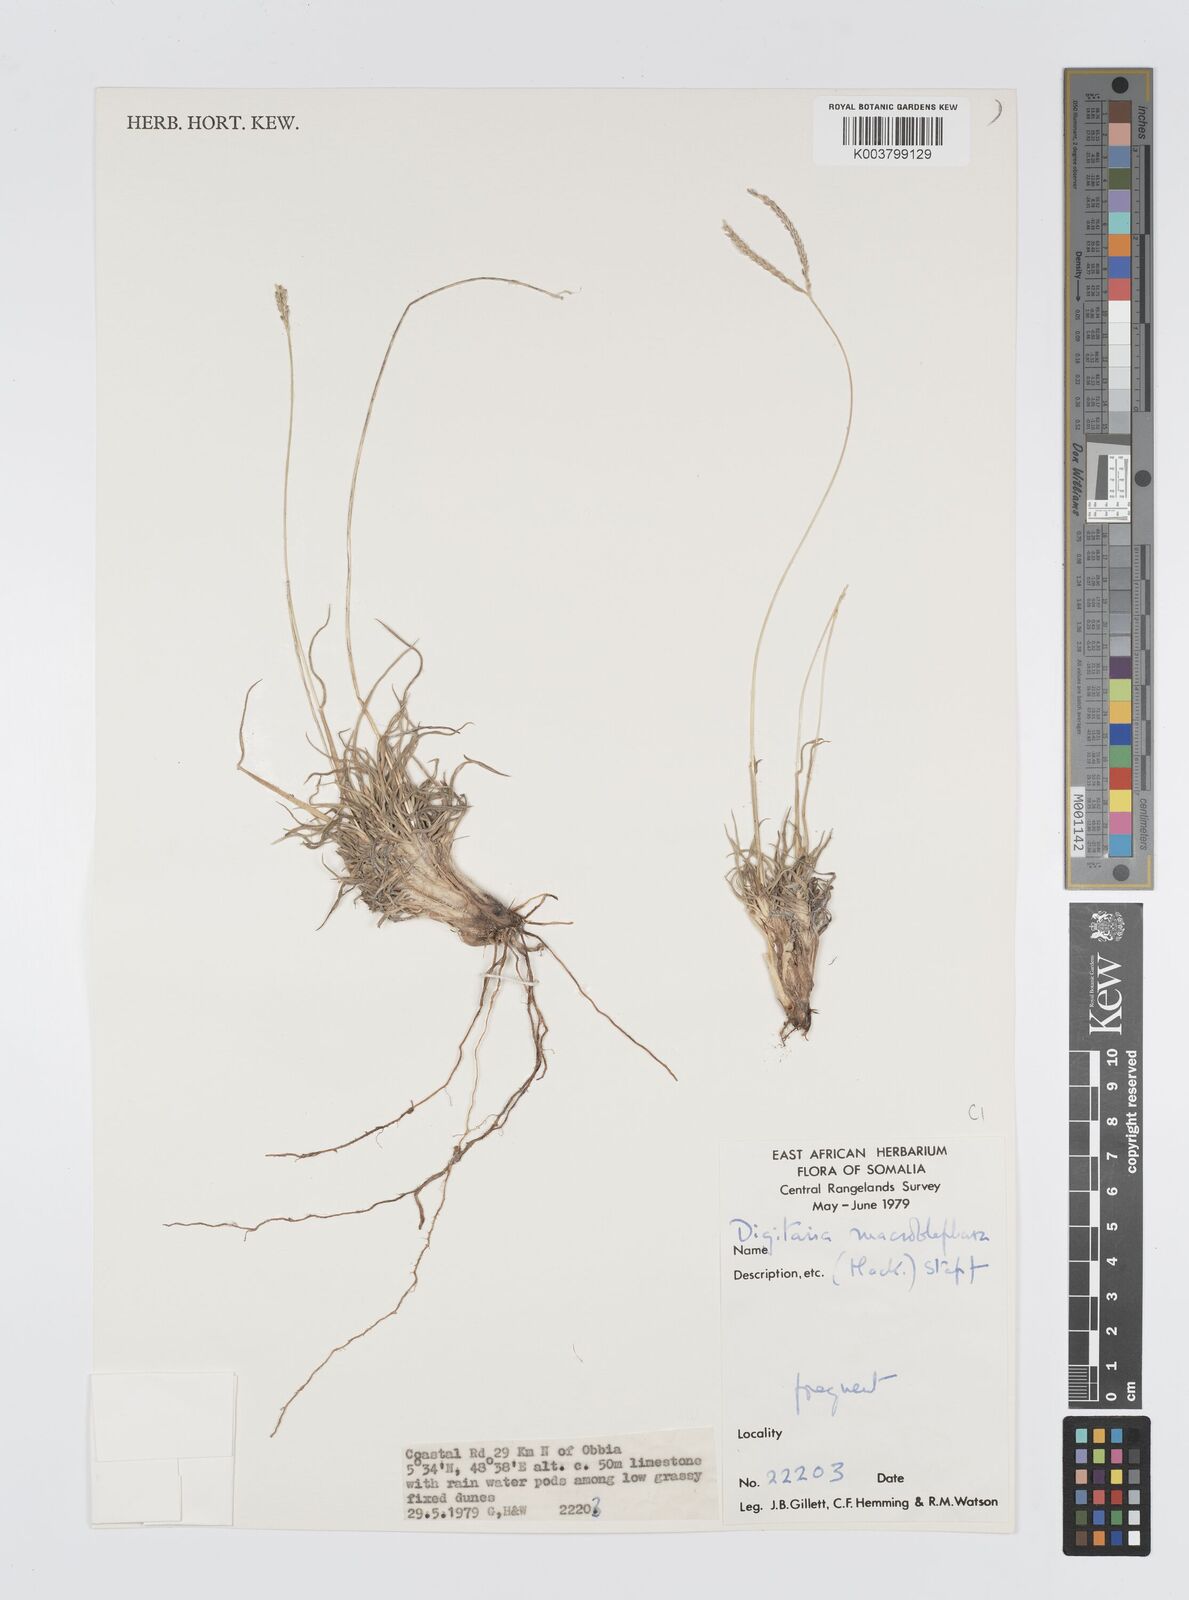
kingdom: Plantae
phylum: Tracheophyta
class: Liliopsida
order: Poales
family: Poaceae
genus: Digitaria
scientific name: Digitaria macroblephara
